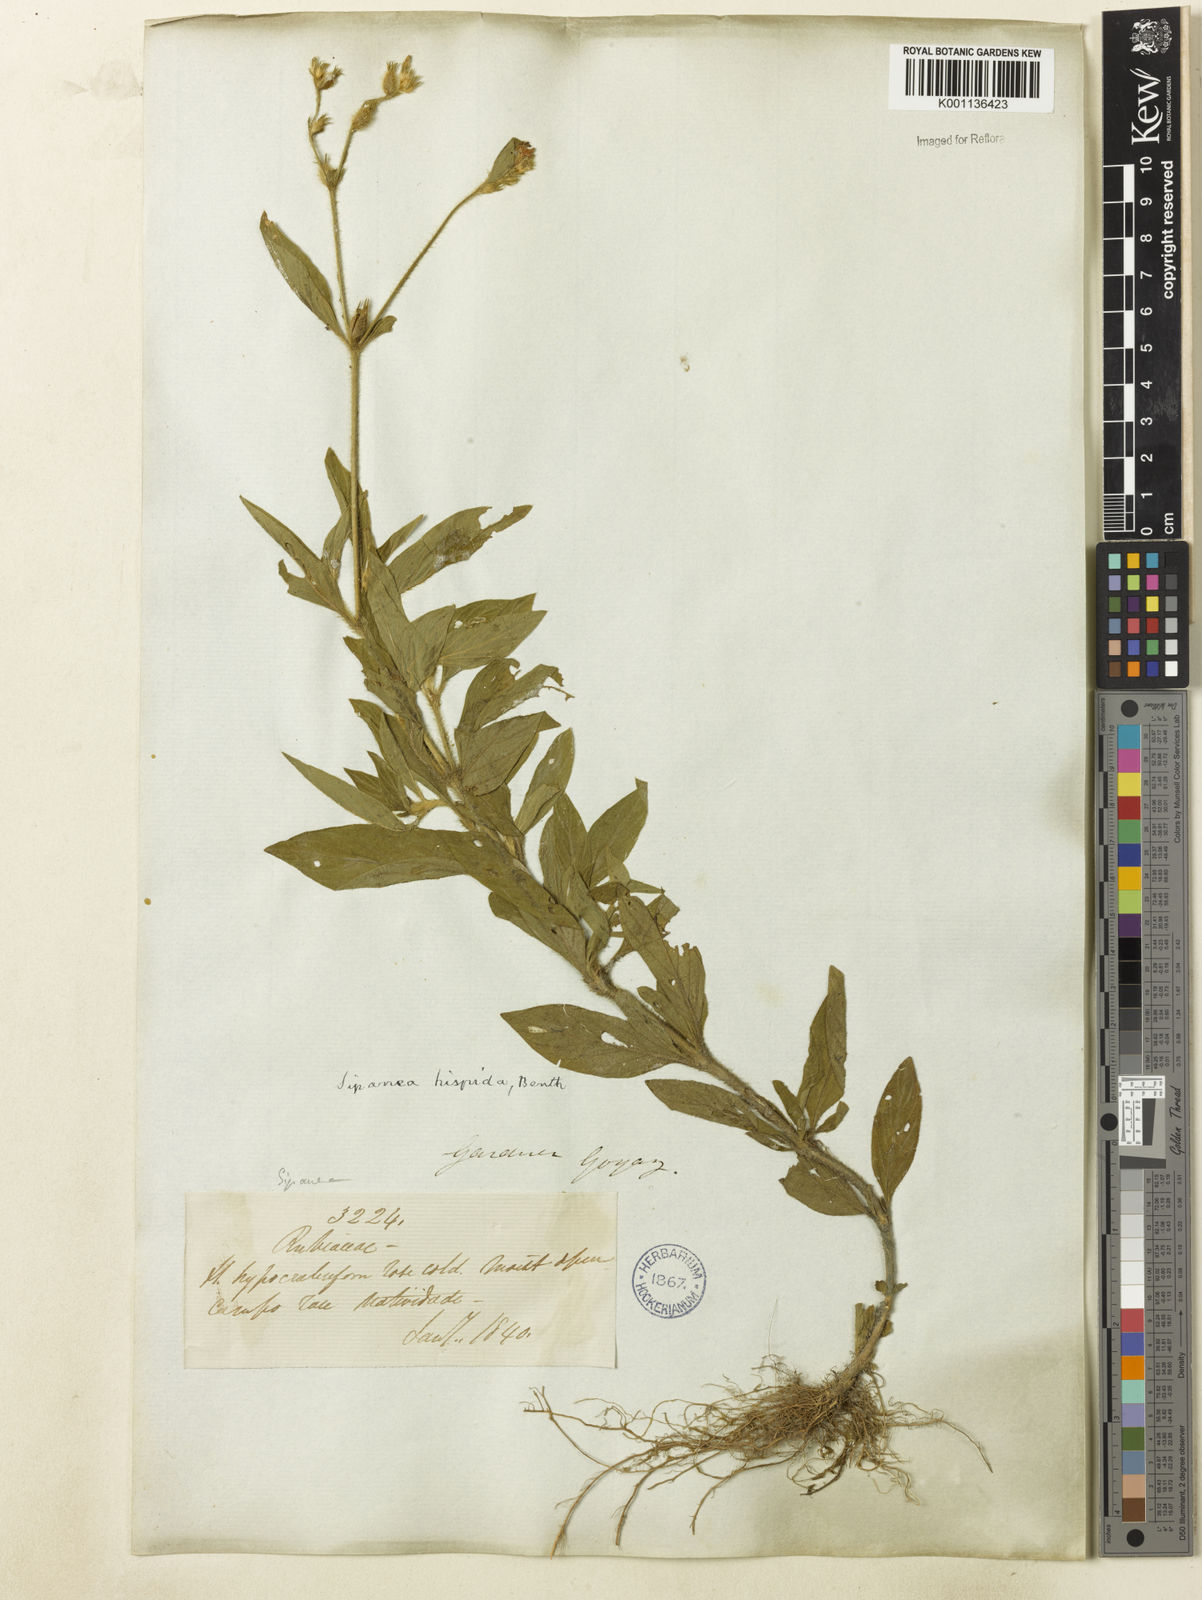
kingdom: Plantae
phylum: Tracheophyta
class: Magnoliopsida
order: Gentianales
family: Rubiaceae
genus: Sipanea
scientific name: Sipanea hispida
